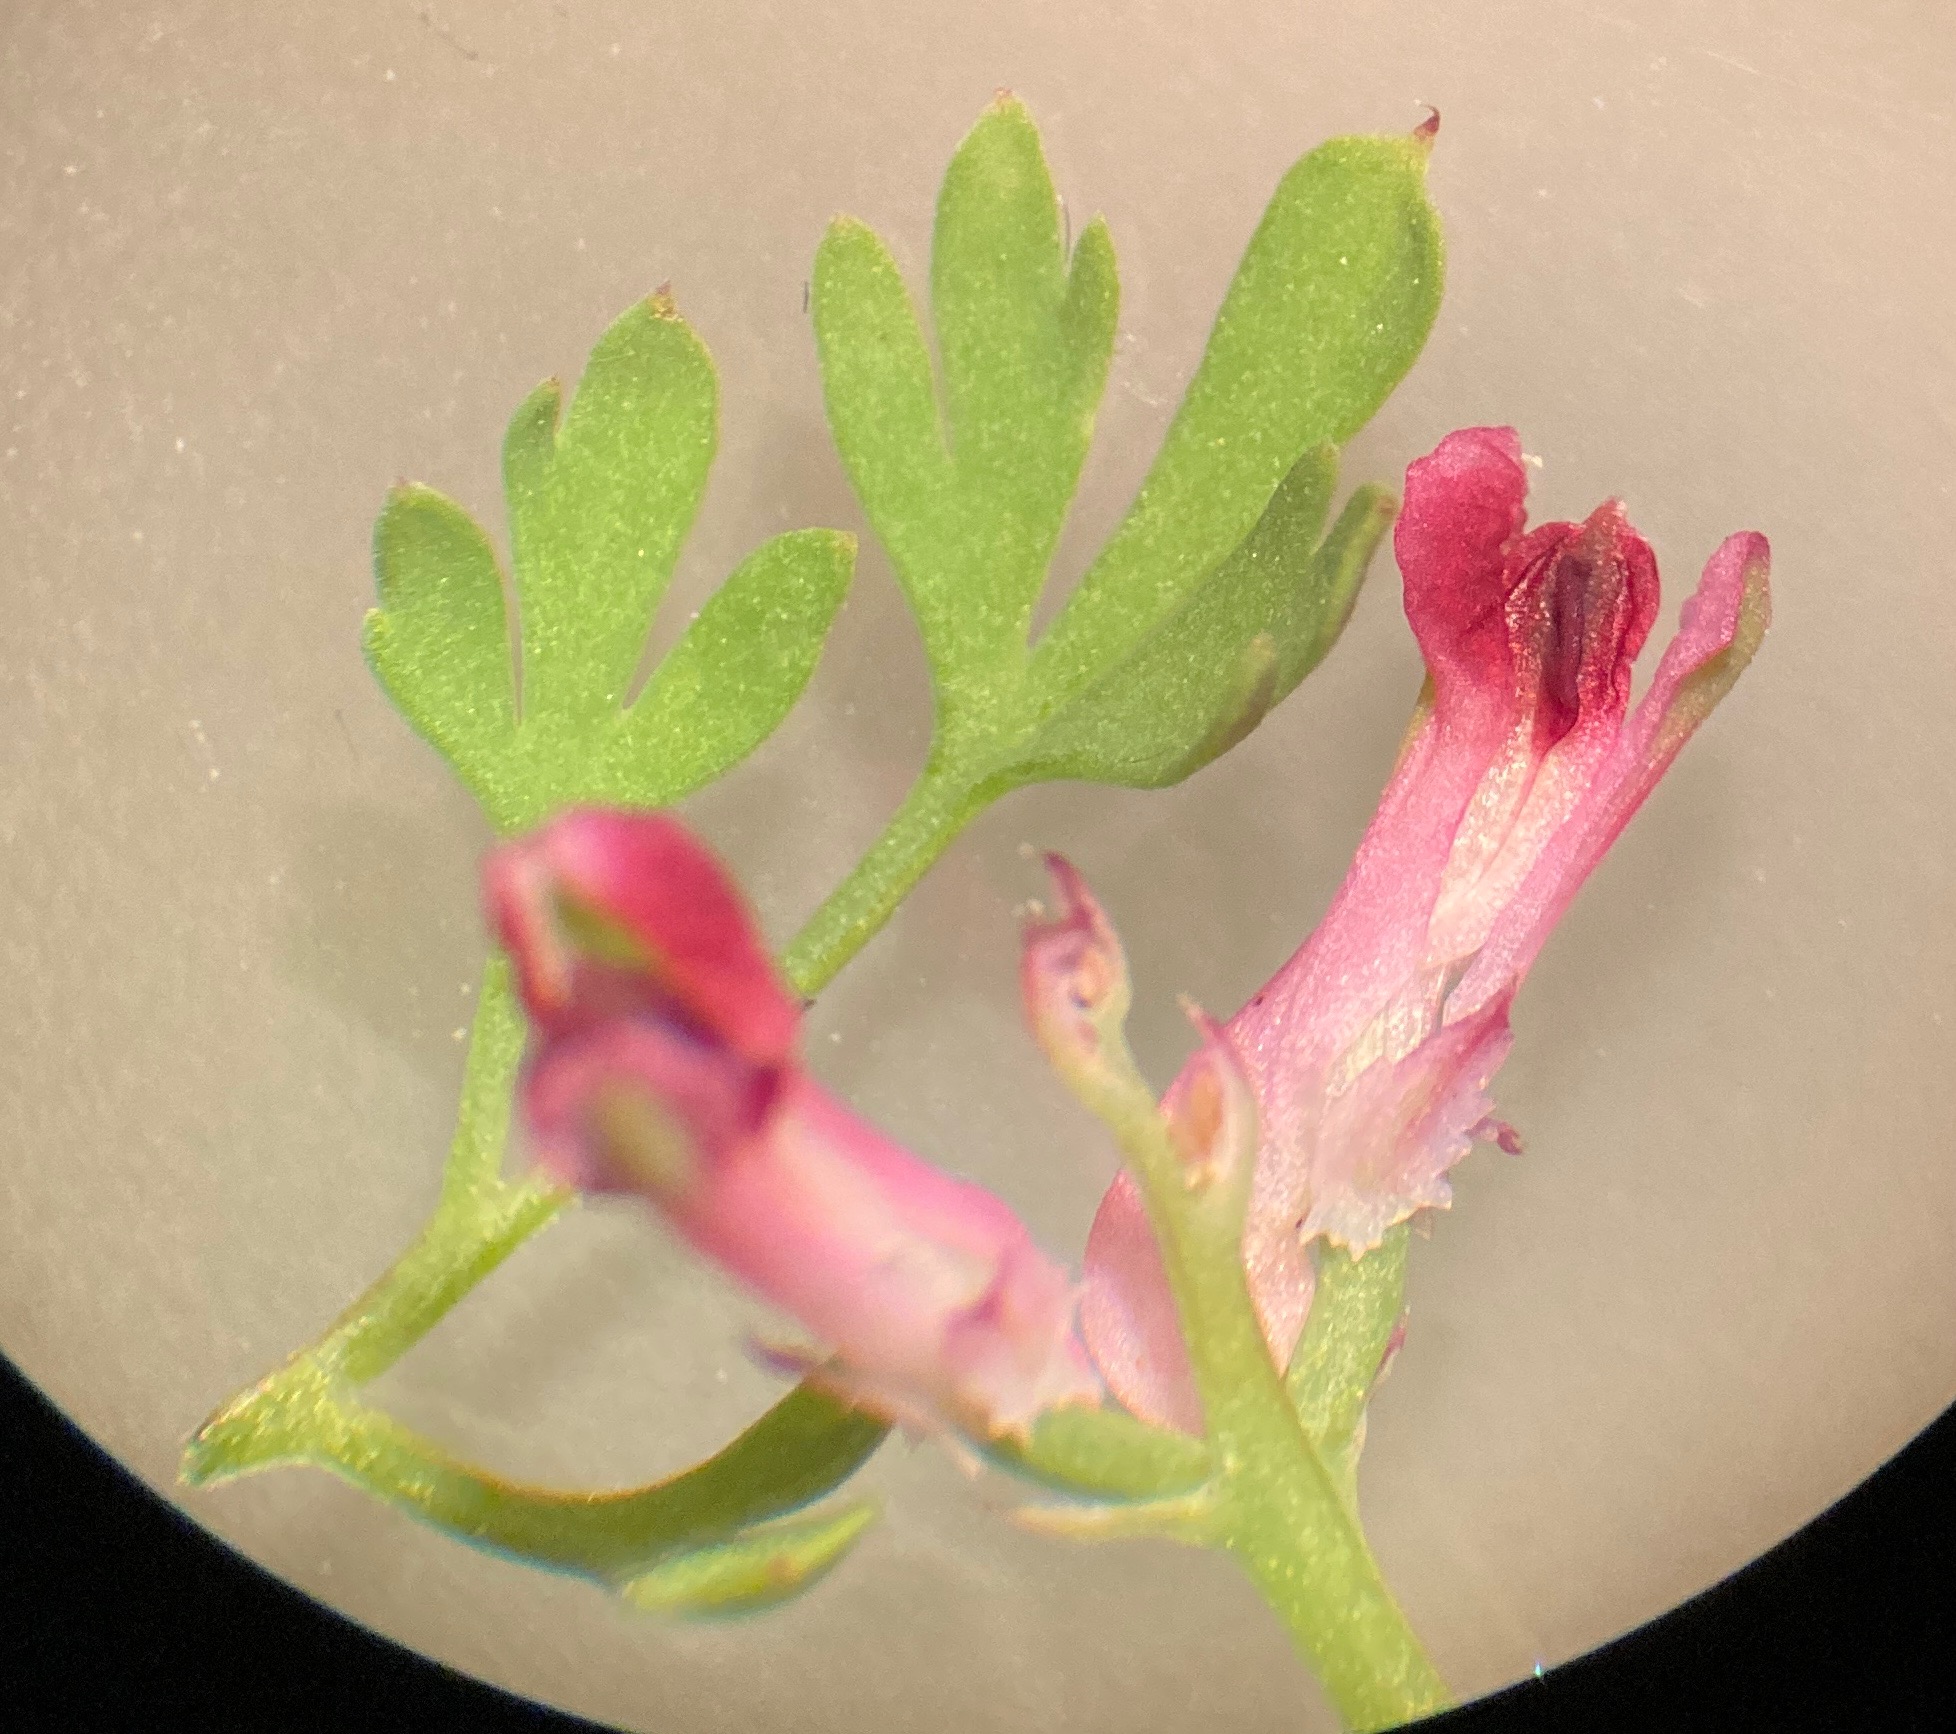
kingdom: Plantae
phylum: Tracheophyta
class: Magnoliopsida
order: Ranunculales
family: Papaveraceae
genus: Fumaria
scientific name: Fumaria officinalis
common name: Læge-jordrøg
